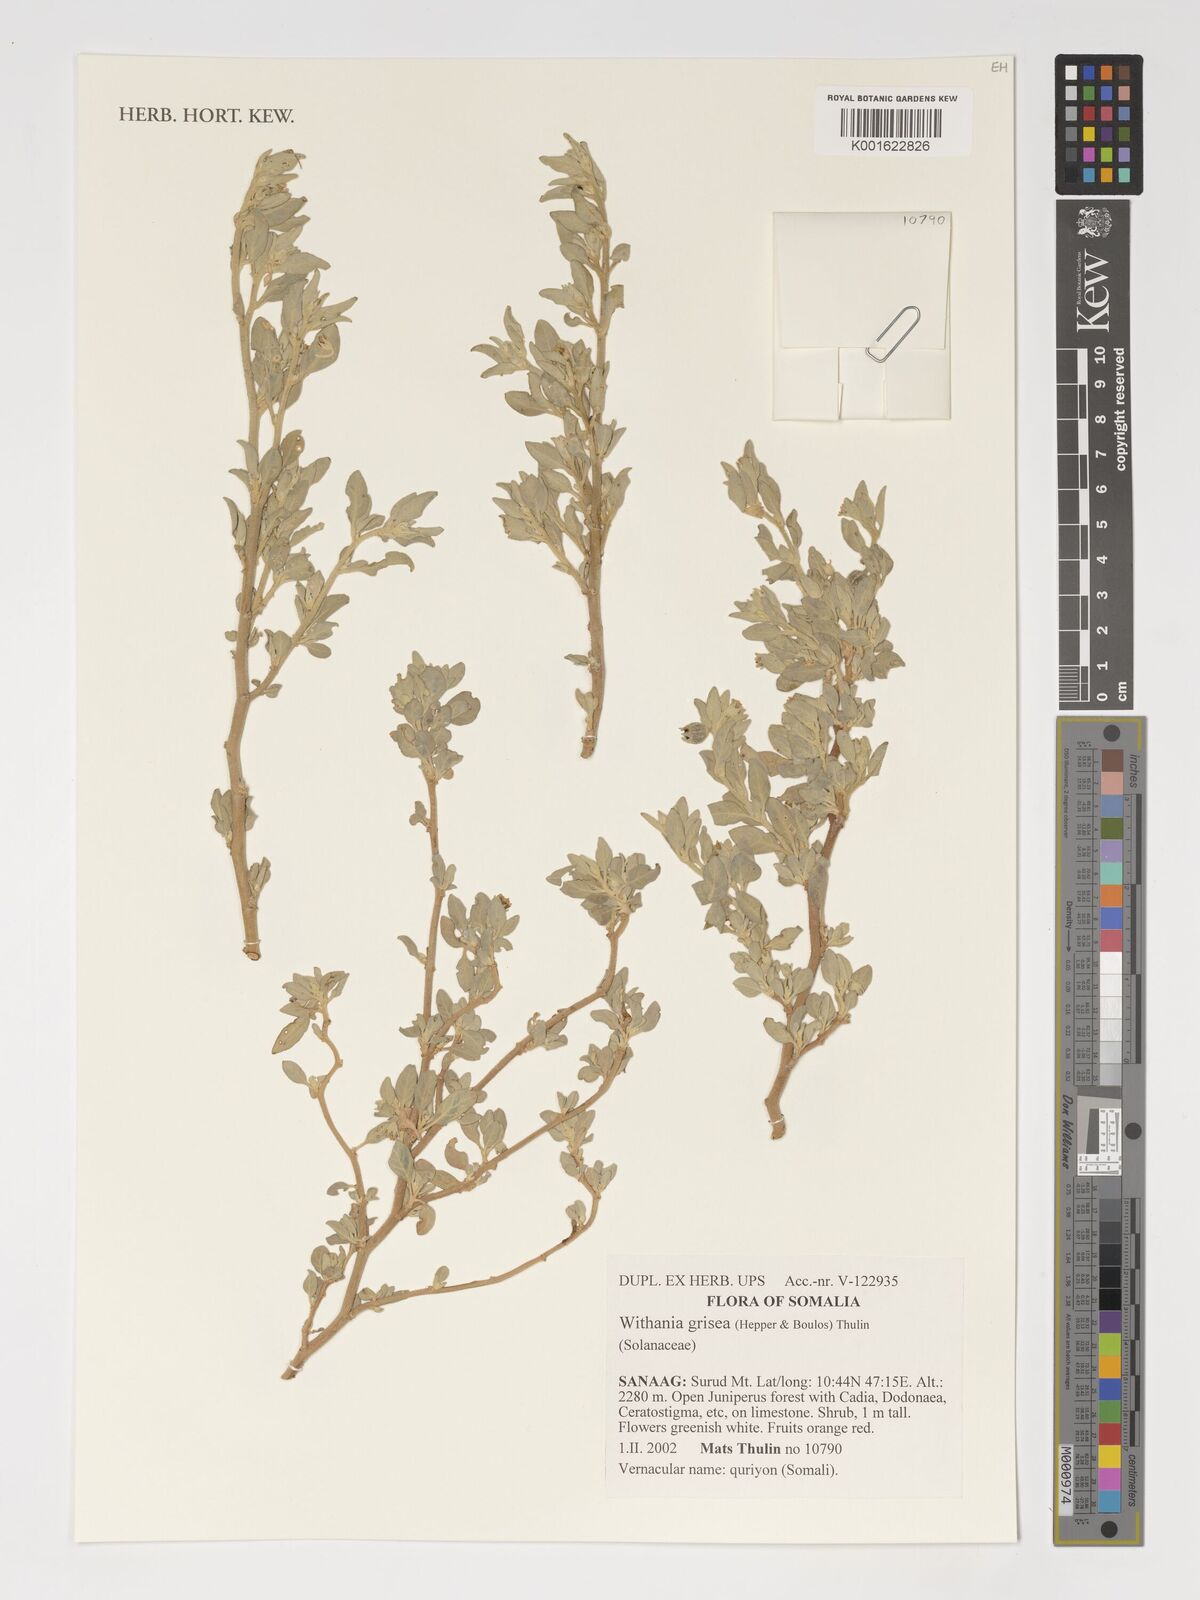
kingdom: Plantae
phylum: Tracheophyta
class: Magnoliopsida
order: Solanales
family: Solanaceae
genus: Withania
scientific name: Withania grisea
